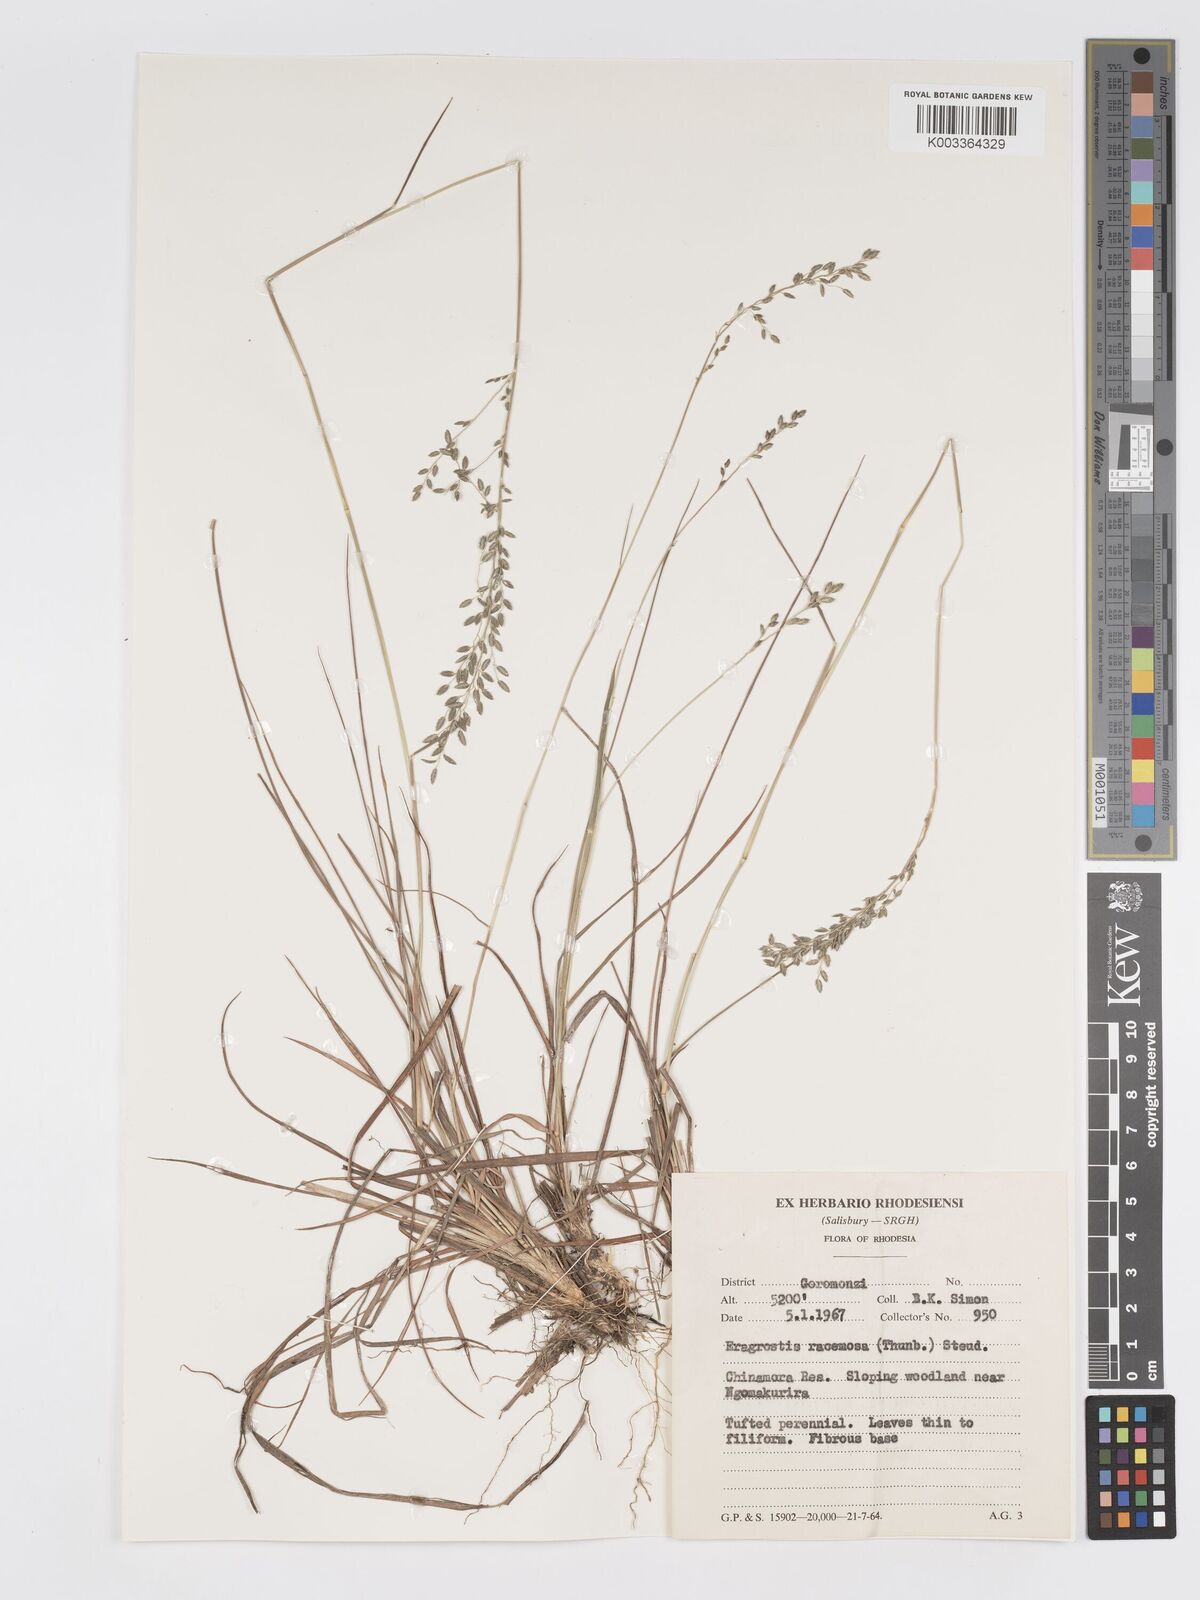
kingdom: Plantae
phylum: Tracheophyta
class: Liliopsida
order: Poales
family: Poaceae
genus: Eragrostis
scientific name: Eragrostis racemosa
